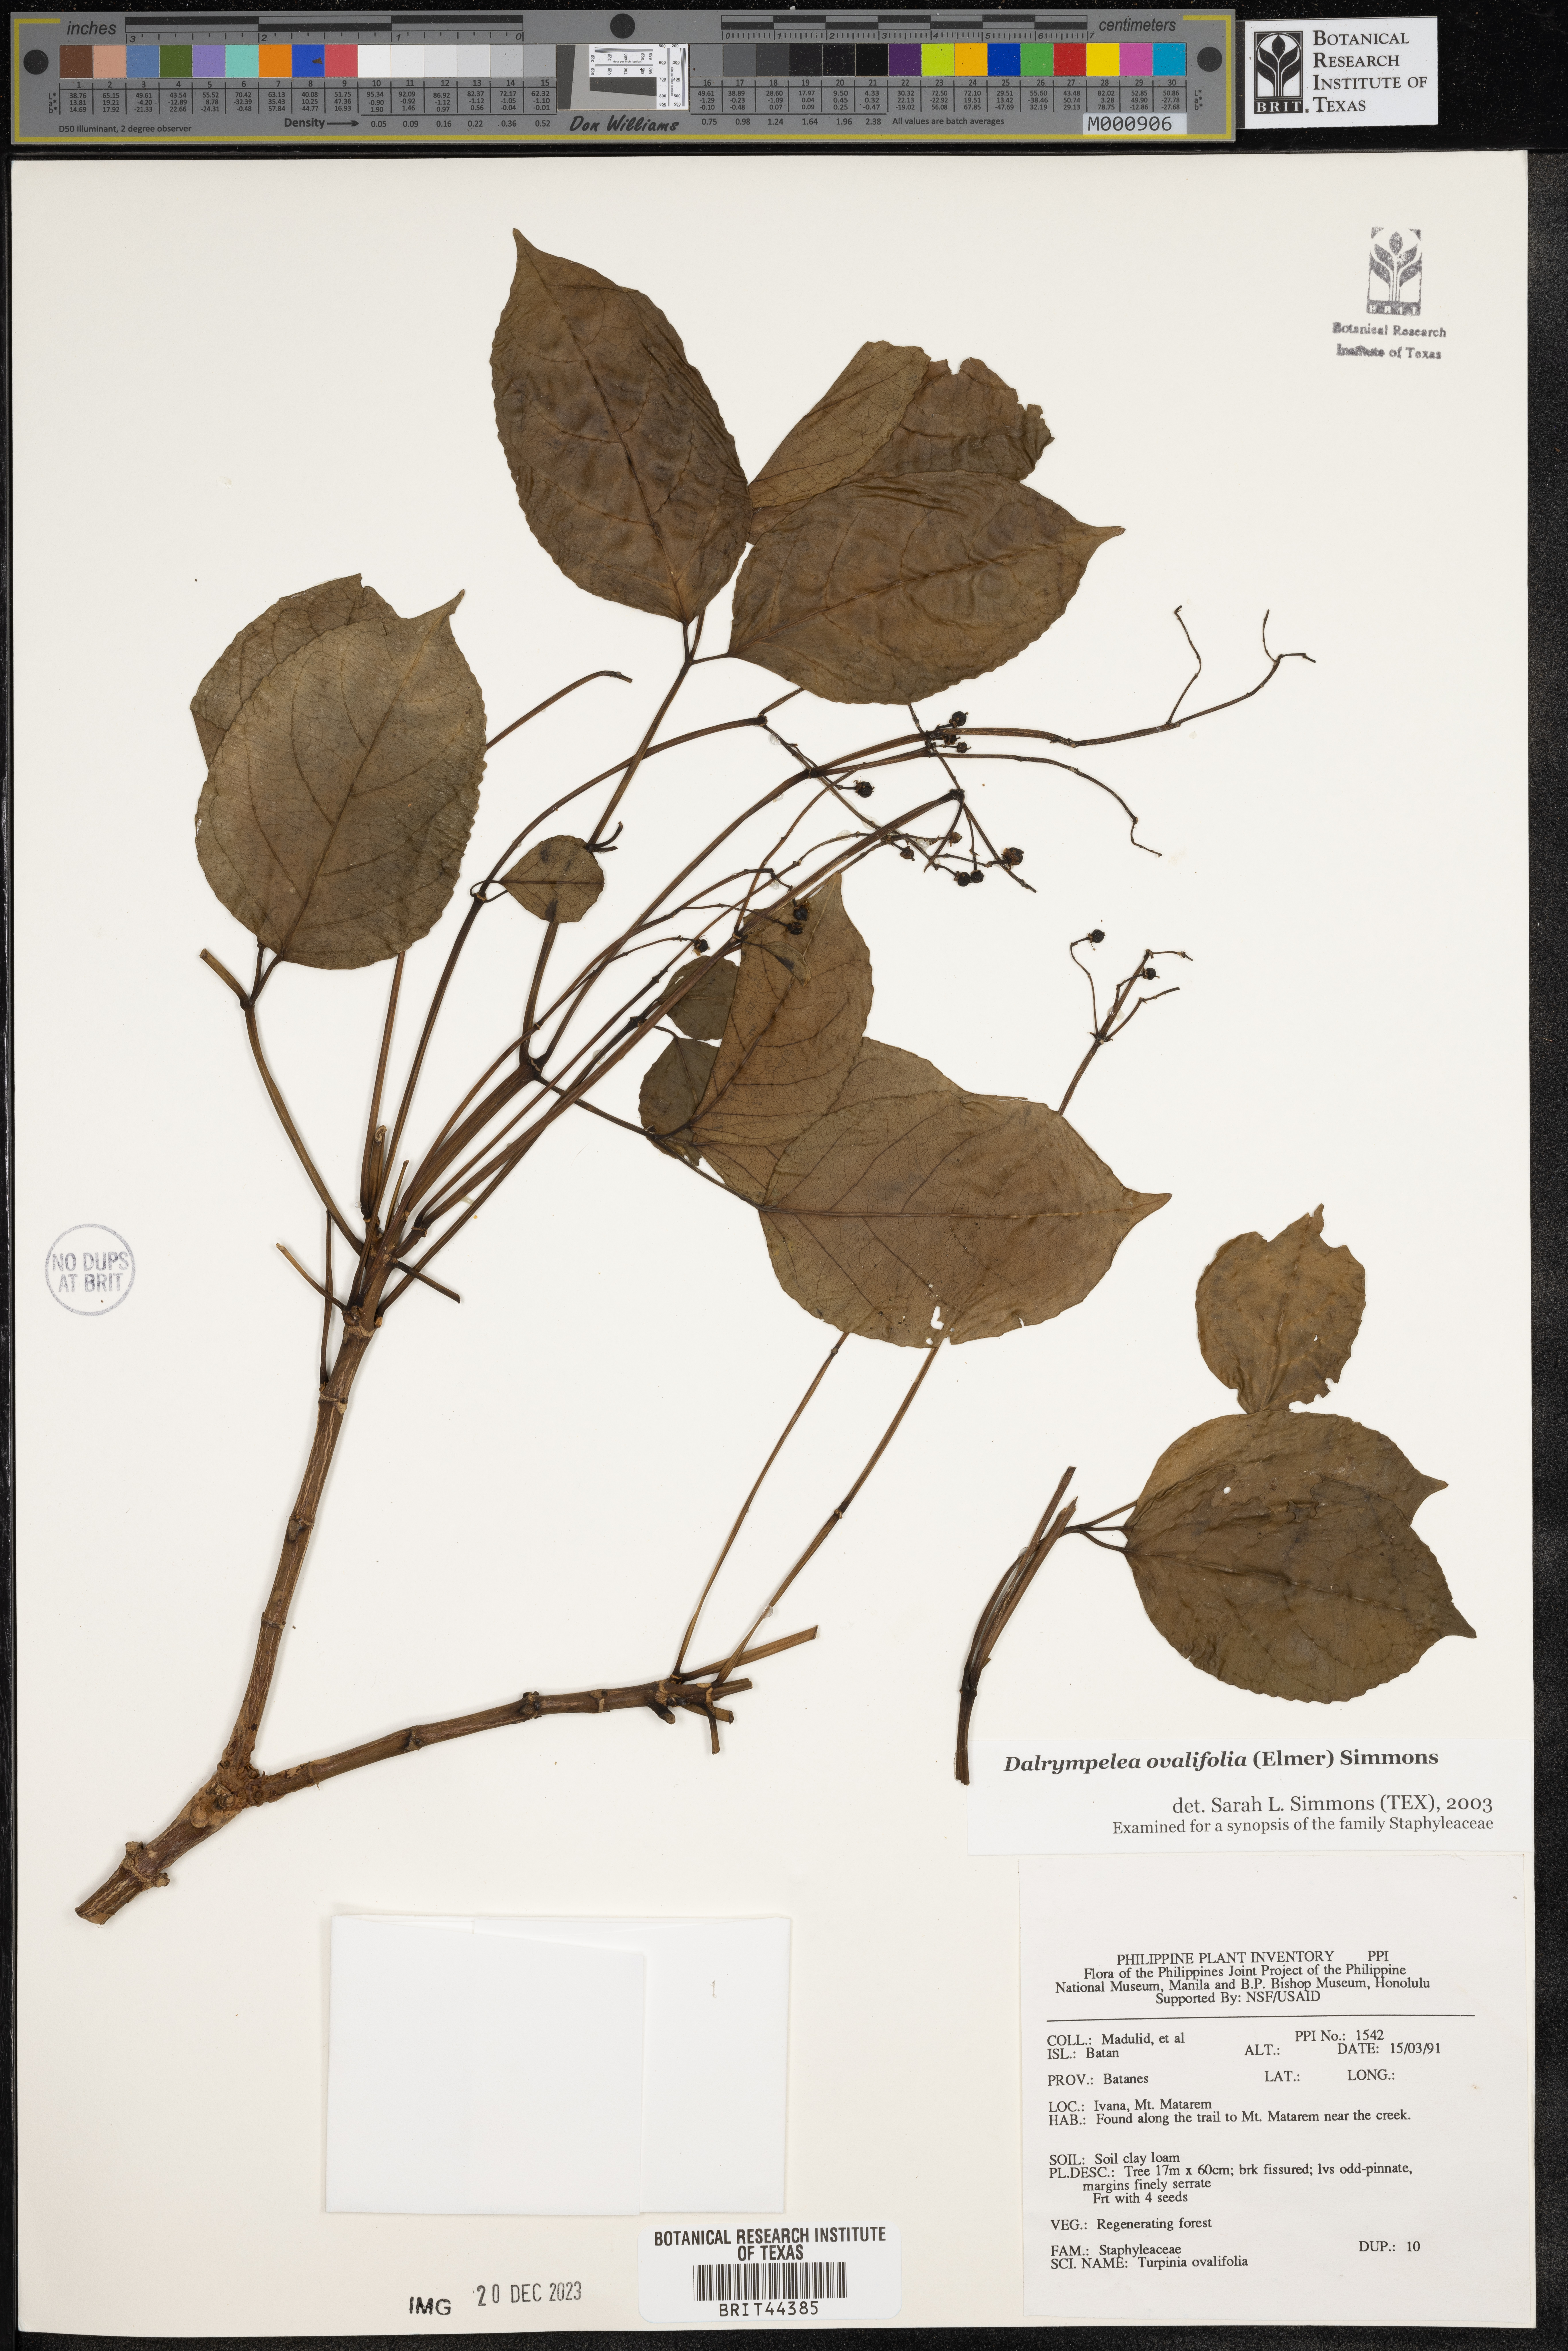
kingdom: Plantae
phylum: Tracheophyta
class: Magnoliopsida
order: Crossosomatales
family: Staphyleaceae
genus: Dalrympelea
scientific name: Dalrympelea
